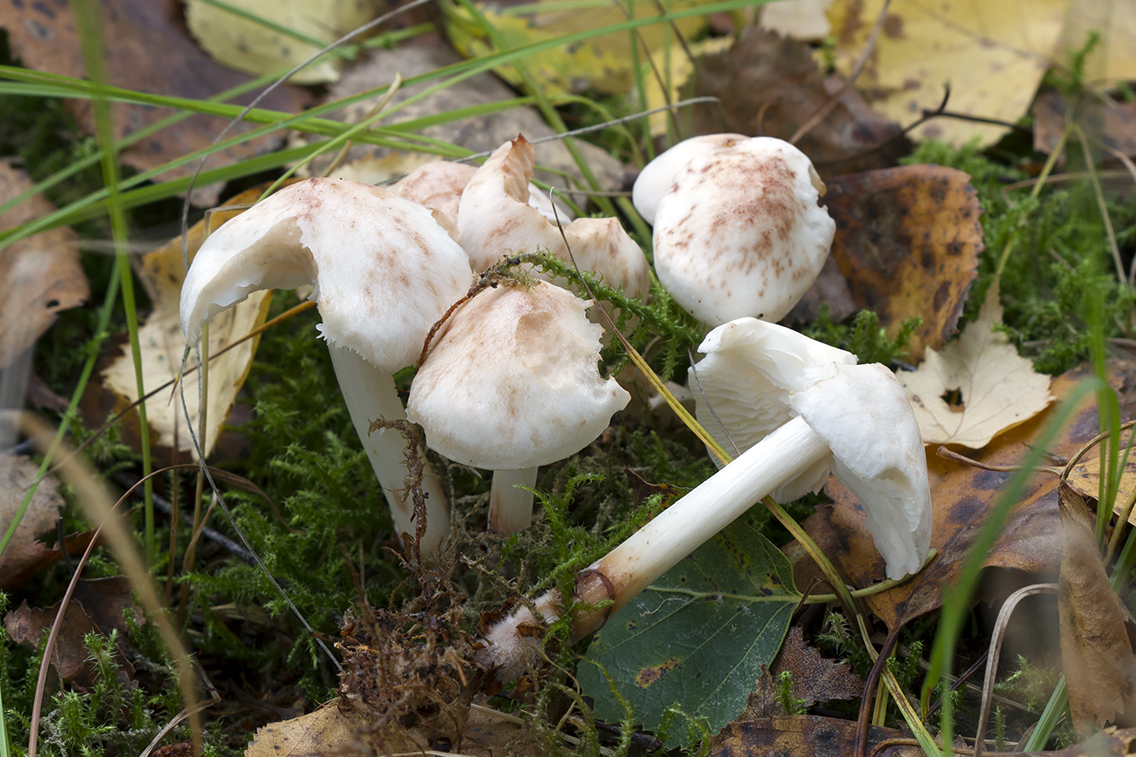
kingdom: Fungi
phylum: Basidiomycota
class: Agaricomycetes
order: Agaricales
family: Omphalotaceae
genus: Rhodocollybia
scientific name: Rhodocollybia maculata
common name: plettet fladhat
